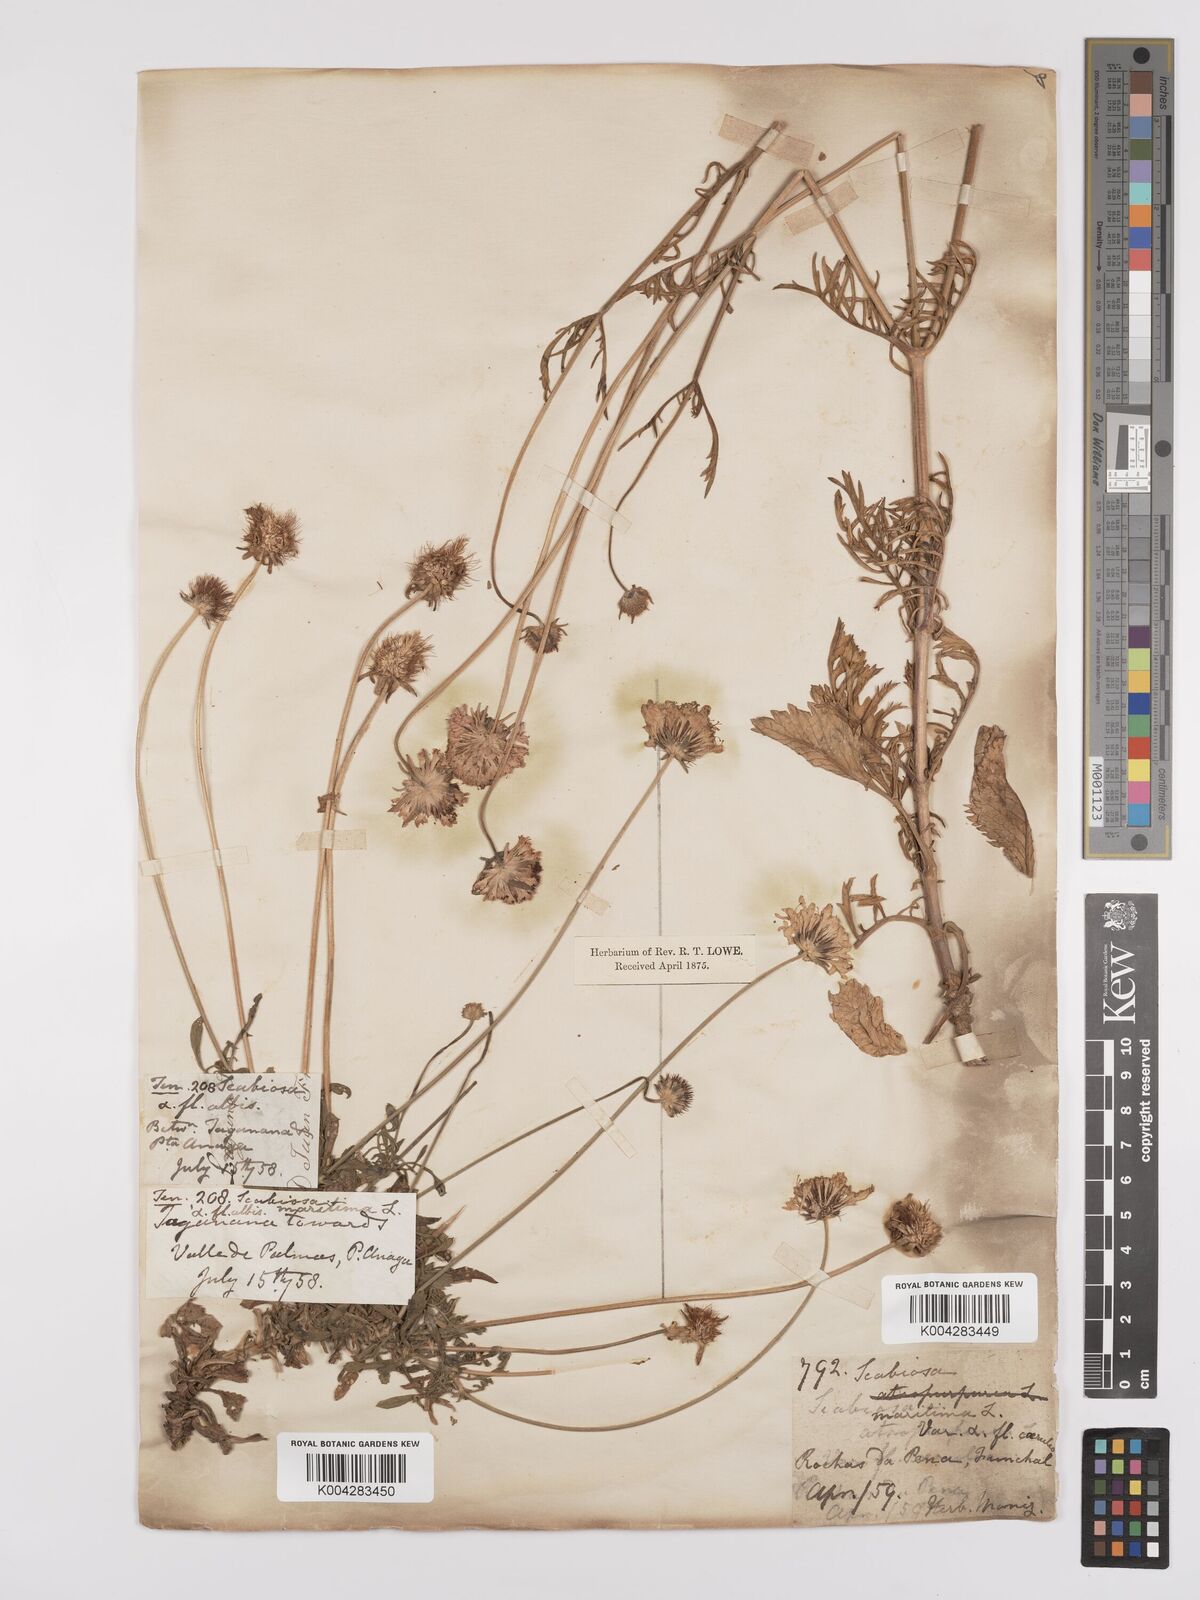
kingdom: Plantae
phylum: Tracheophyta
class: Magnoliopsida
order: Dipsacales
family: Caprifoliaceae
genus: Sixalix
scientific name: Sixalix maritima
